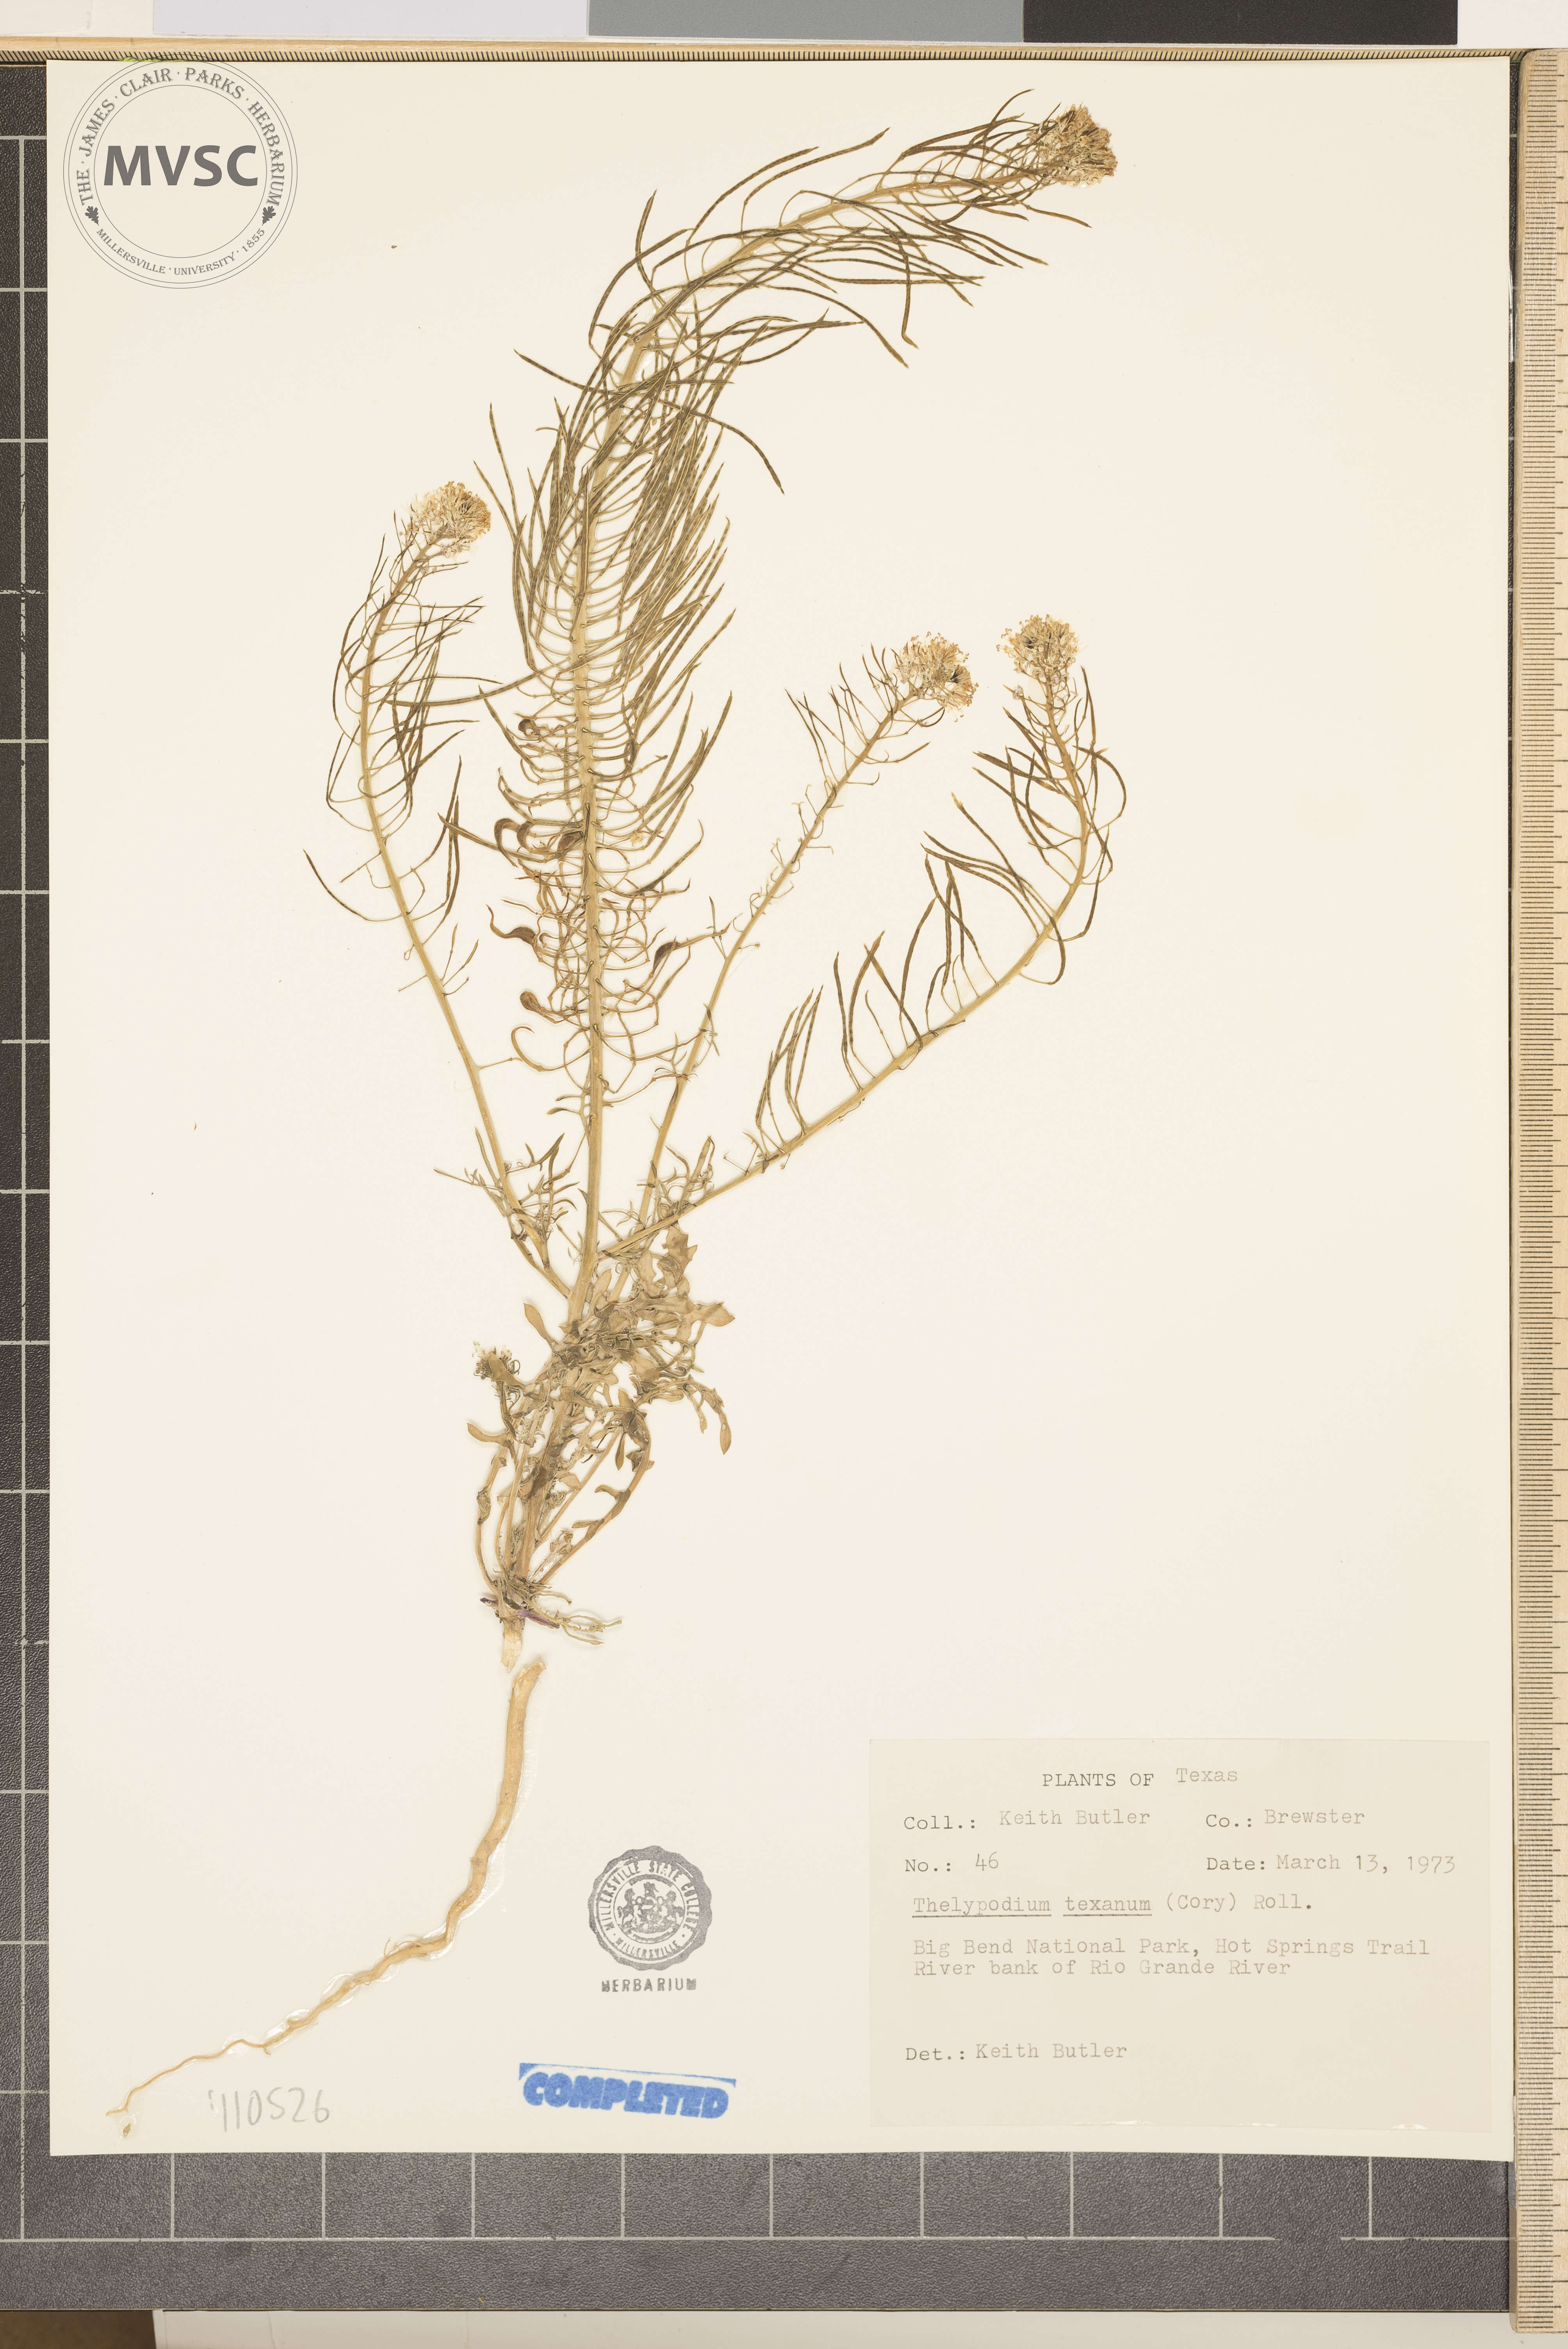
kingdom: Plantae
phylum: Tracheophyta
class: Magnoliopsida
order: Brassicales
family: Brassicaceae
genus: Thelypodium
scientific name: Thelypodium texanum
